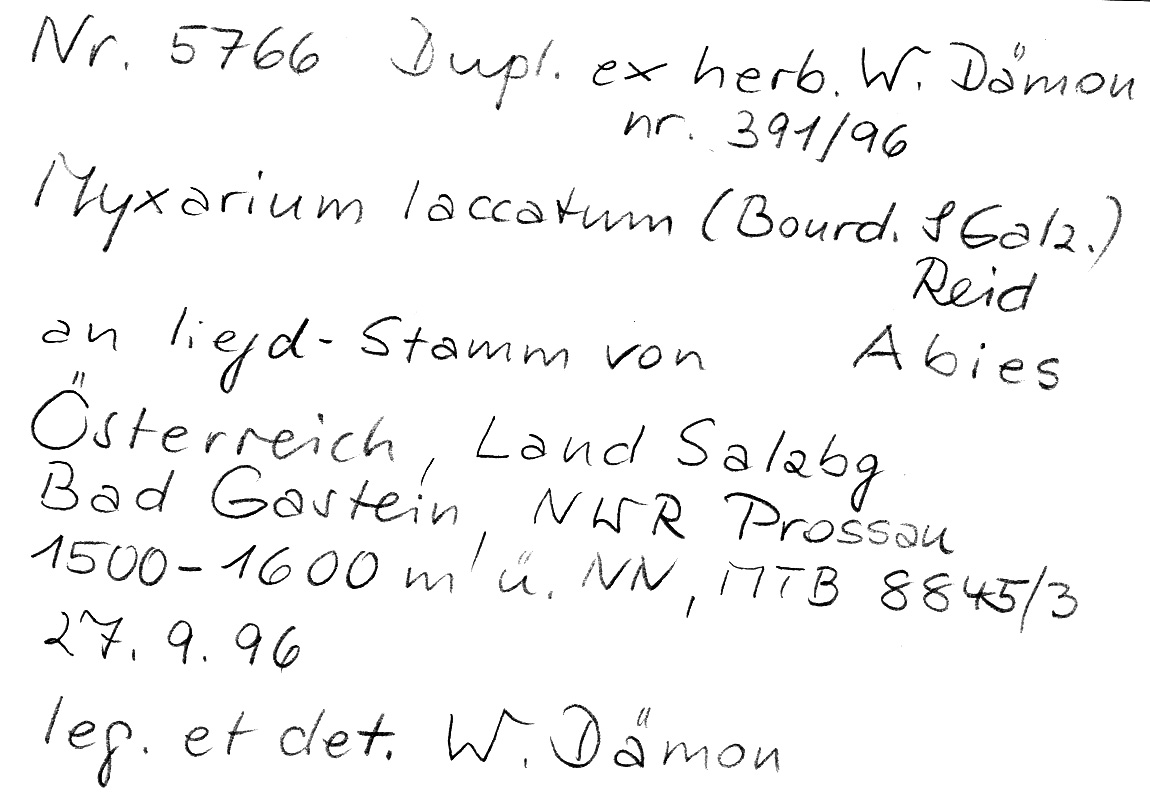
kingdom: Fungi
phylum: Basidiomycota
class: Tremellomycetes
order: Tremellales
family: Exidiaceae
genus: Exidiopsis
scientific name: Exidiopsis effusa
